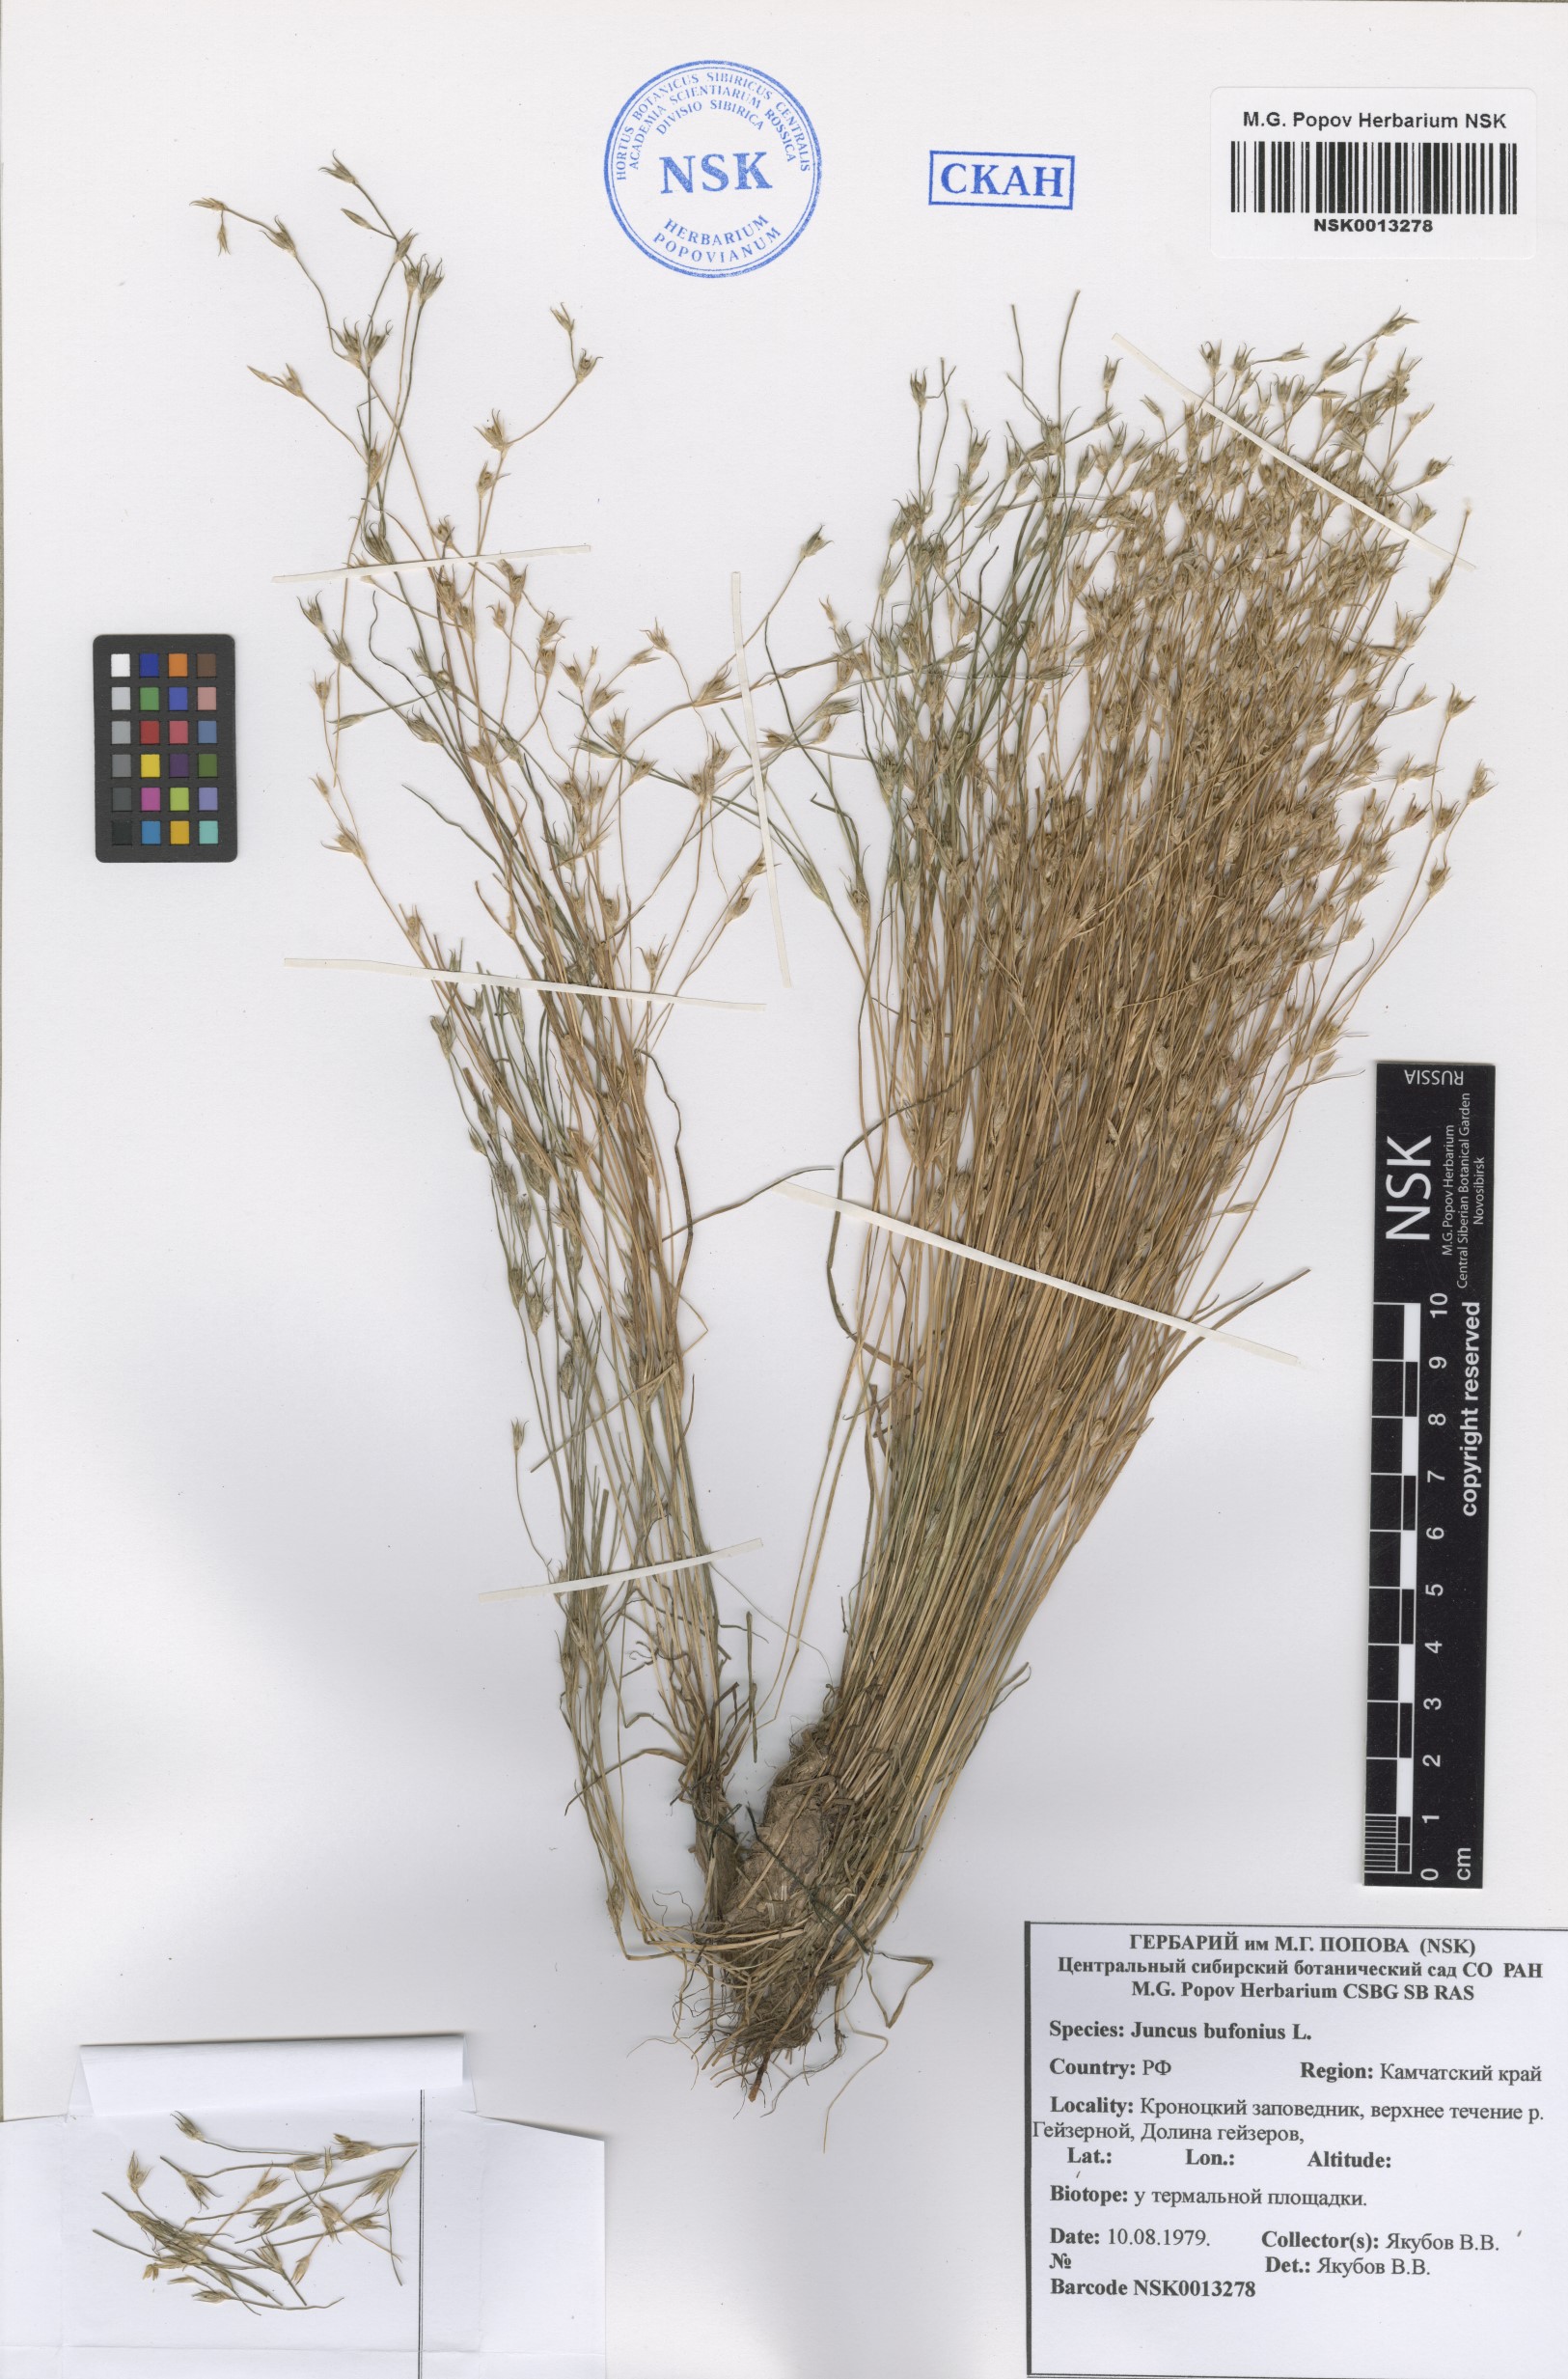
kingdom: Plantae
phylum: Tracheophyta
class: Liliopsida
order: Poales
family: Juncaceae
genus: Juncus
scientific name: Juncus bufonius
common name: Toad rush
